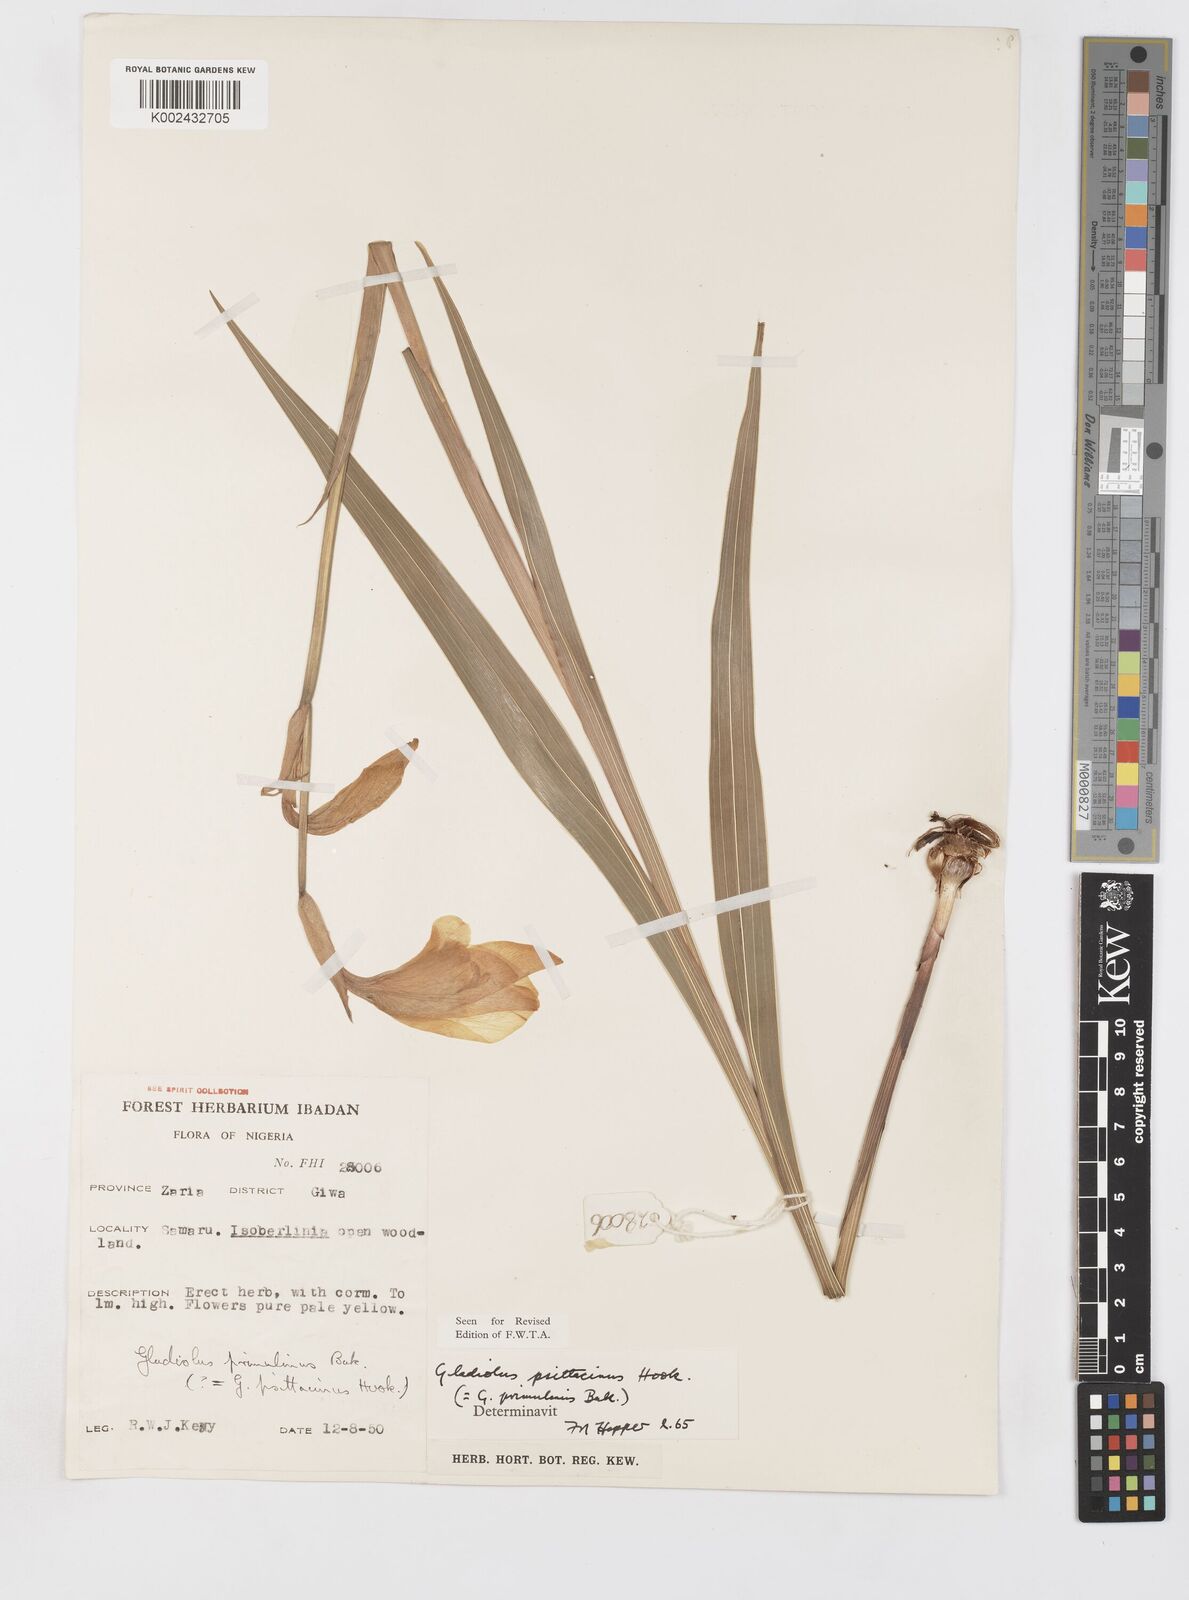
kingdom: Plantae
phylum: Tracheophyta
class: Liliopsida
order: Asparagales
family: Iridaceae
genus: Gladiolus
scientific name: Gladiolus dalenii
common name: Cornflag
